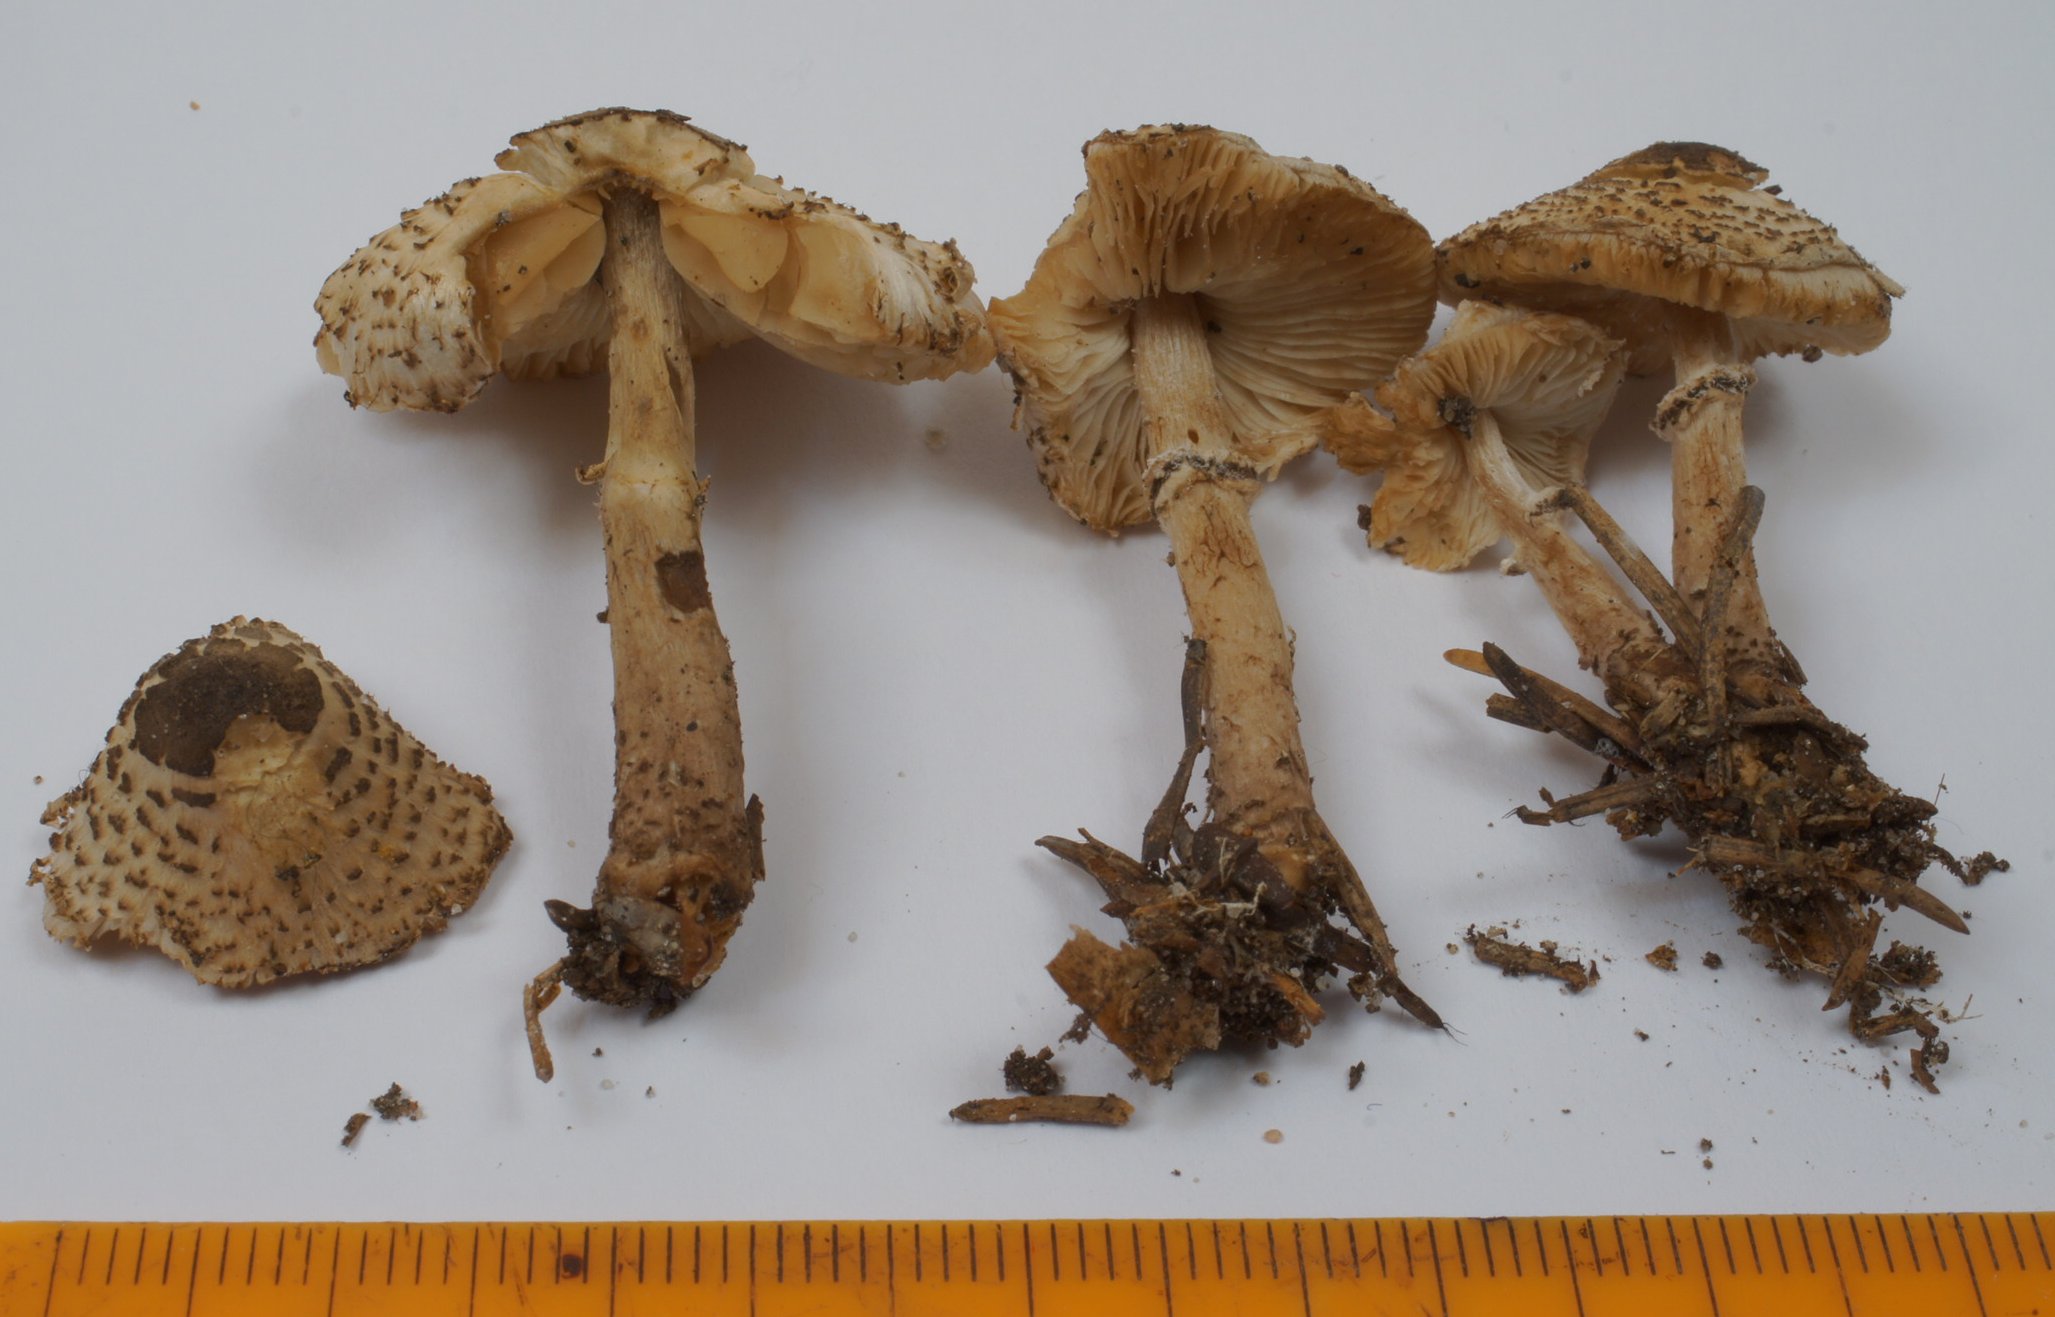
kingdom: Fungi
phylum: Basidiomycota
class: Agaricomycetes
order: Agaricales
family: Agaricaceae
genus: Lepiota
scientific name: Lepiota felina
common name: sortskællet parasolhat
